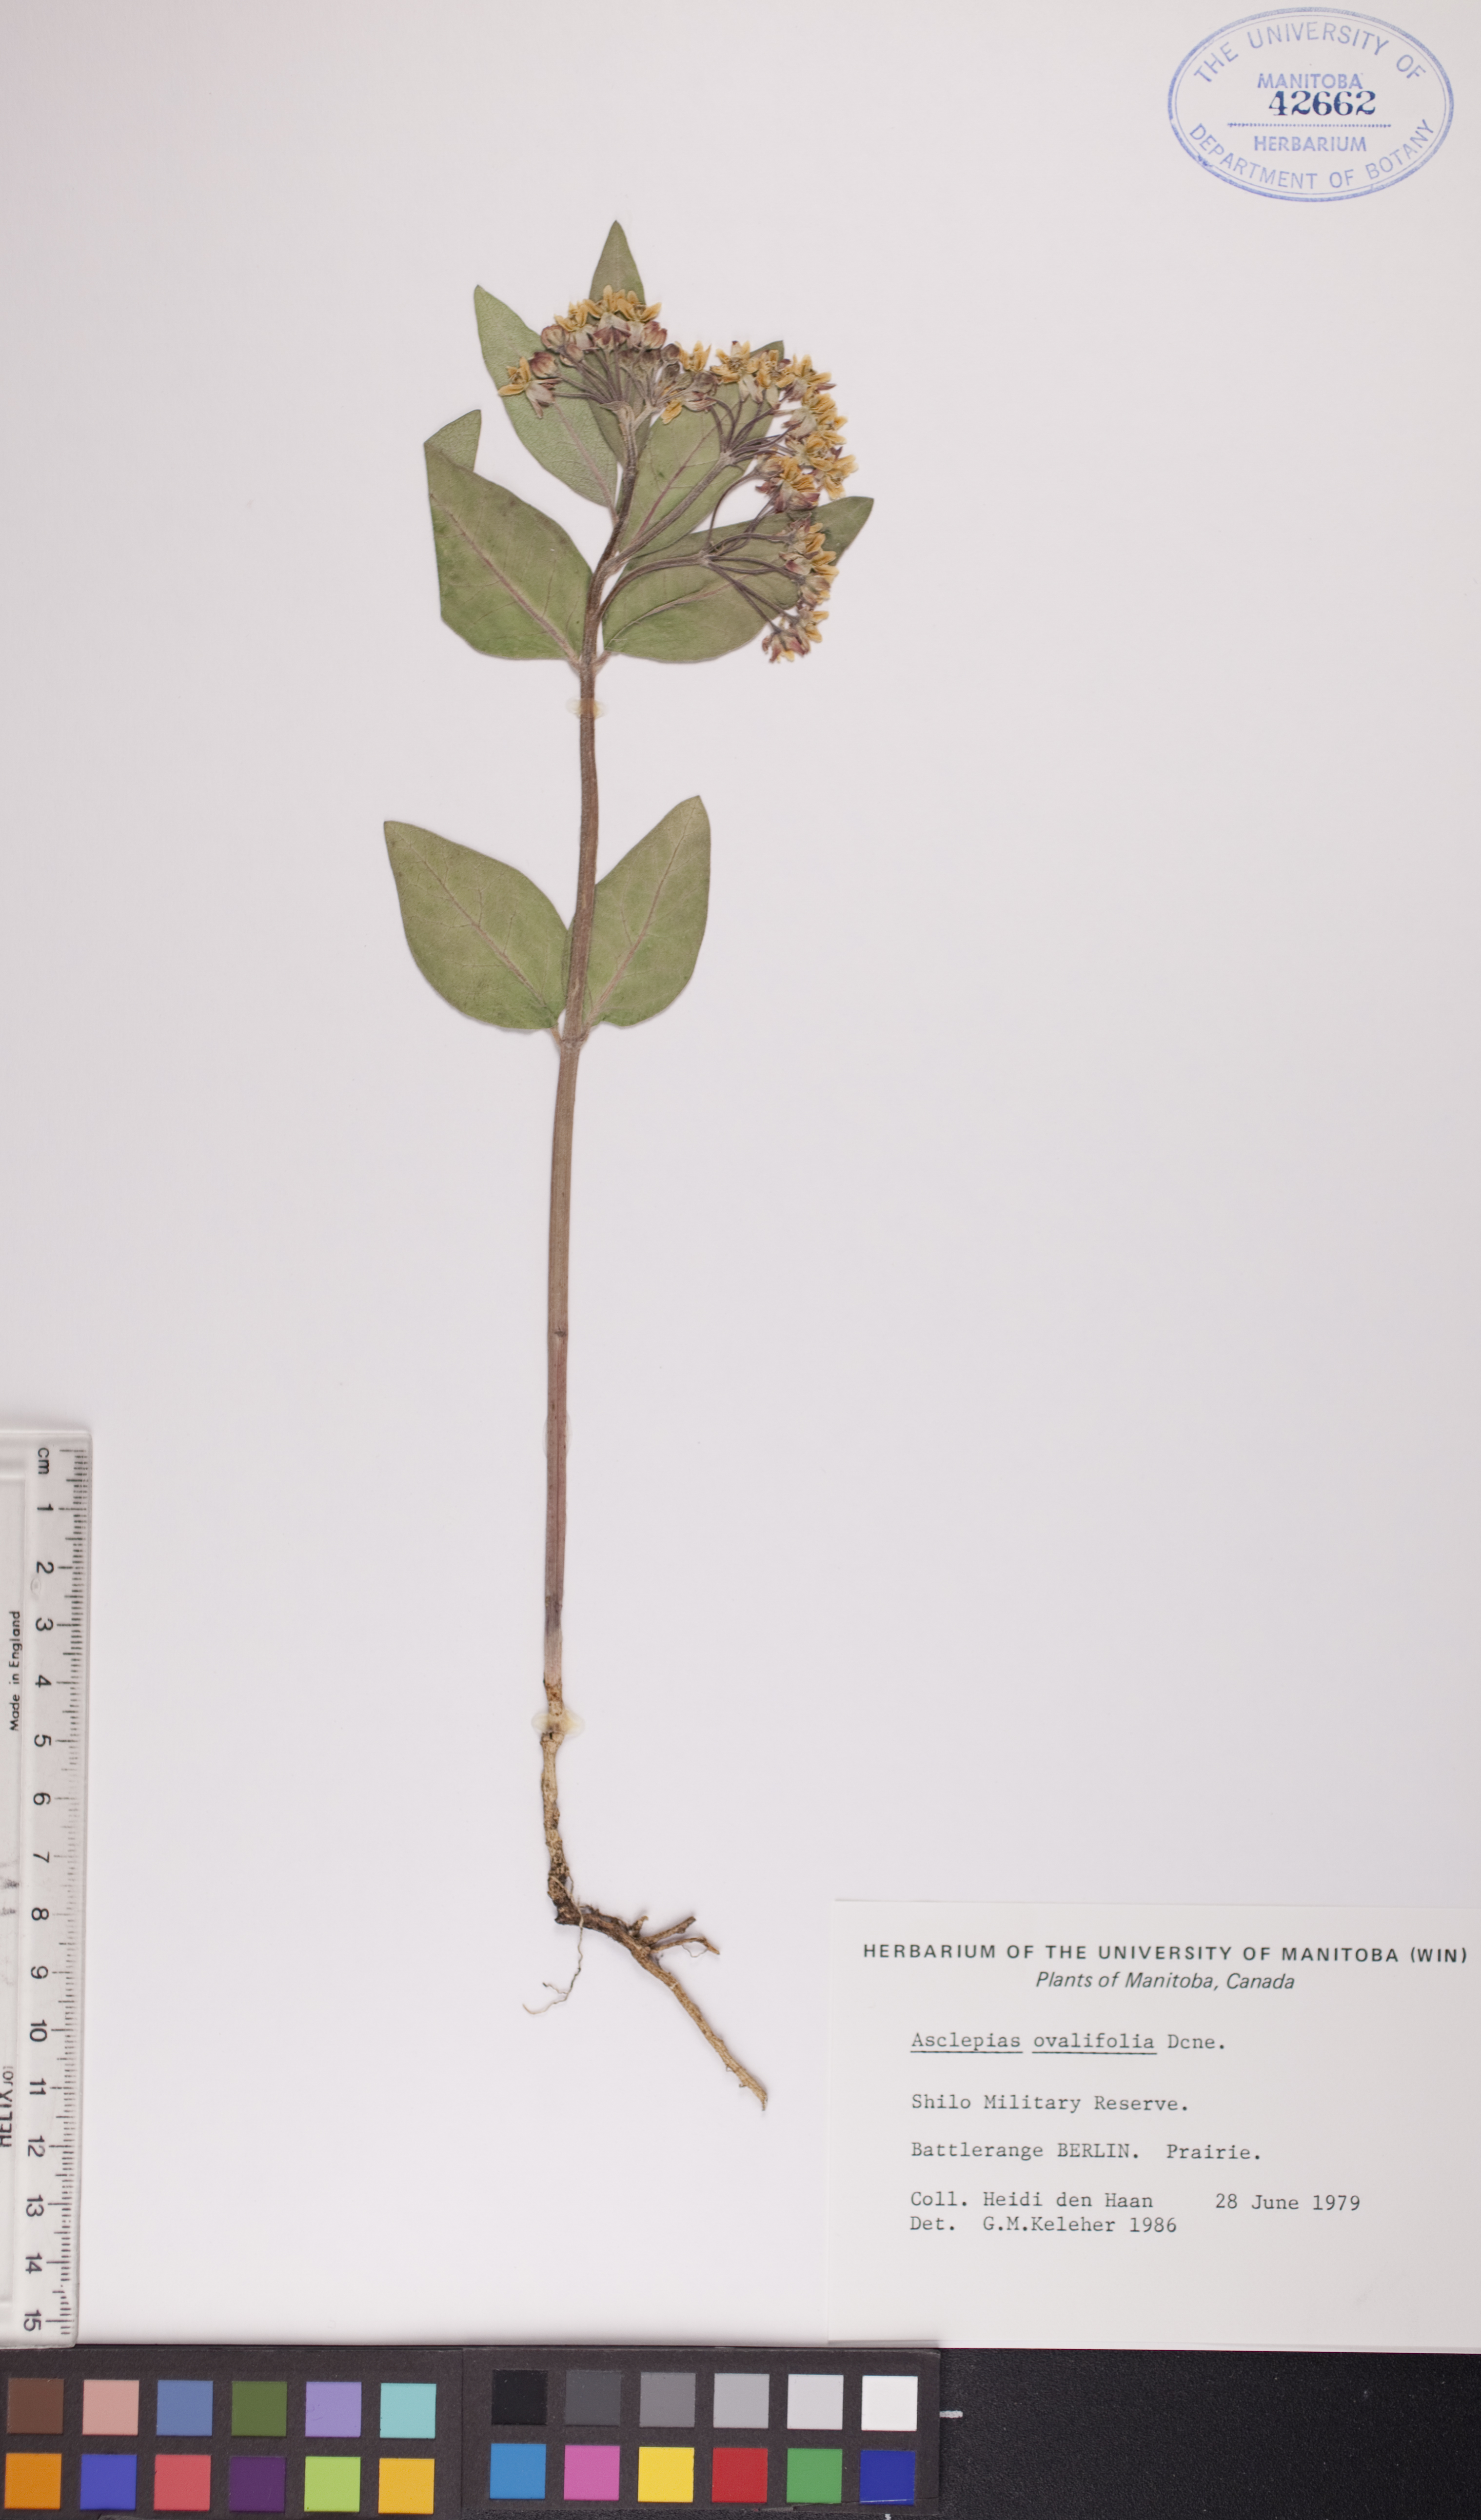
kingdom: Plantae
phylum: Tracheophyta
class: Magnoliopsida
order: Gentianales
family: Apocynaceae
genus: Asclepias
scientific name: Asclepias ovalifolia
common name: Dwarf milkweed
